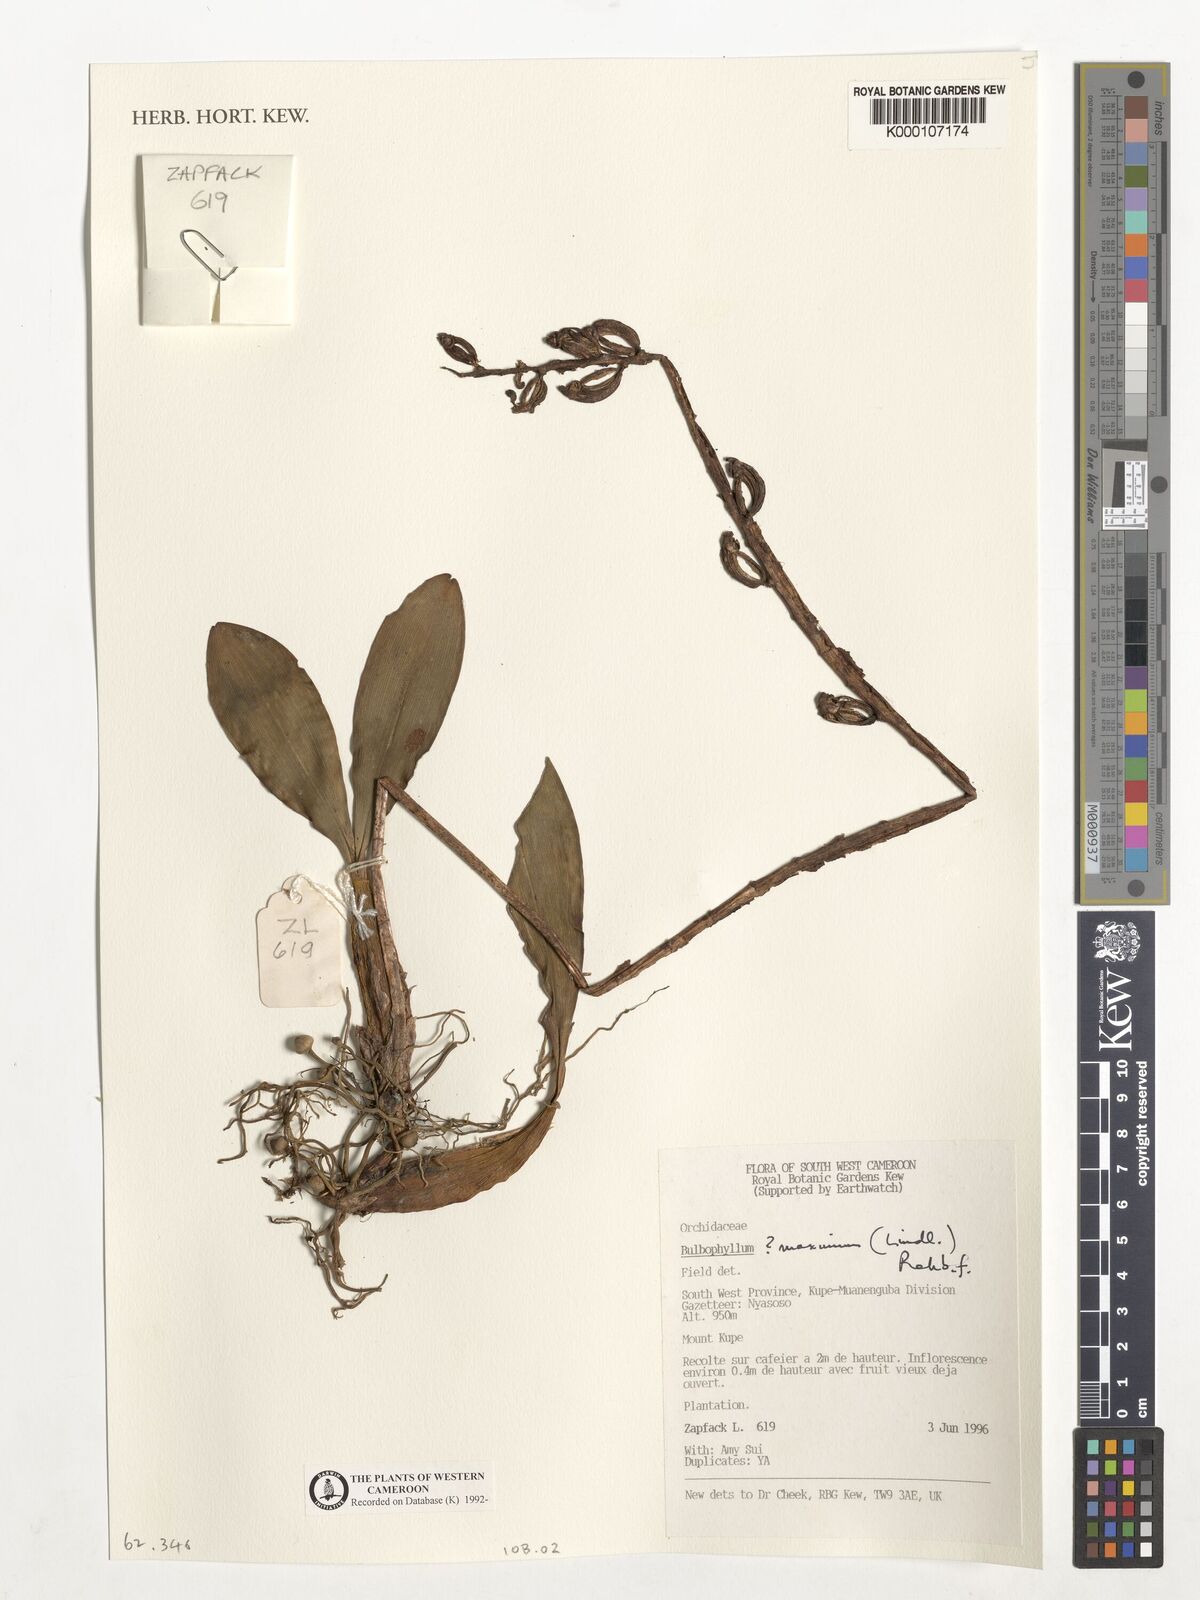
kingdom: Plantae
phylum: Tracheophyta
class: Liliopsida
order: Asparagales
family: Orchidaceae
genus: Bulbophyllum
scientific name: Bulbophyllum maximum
